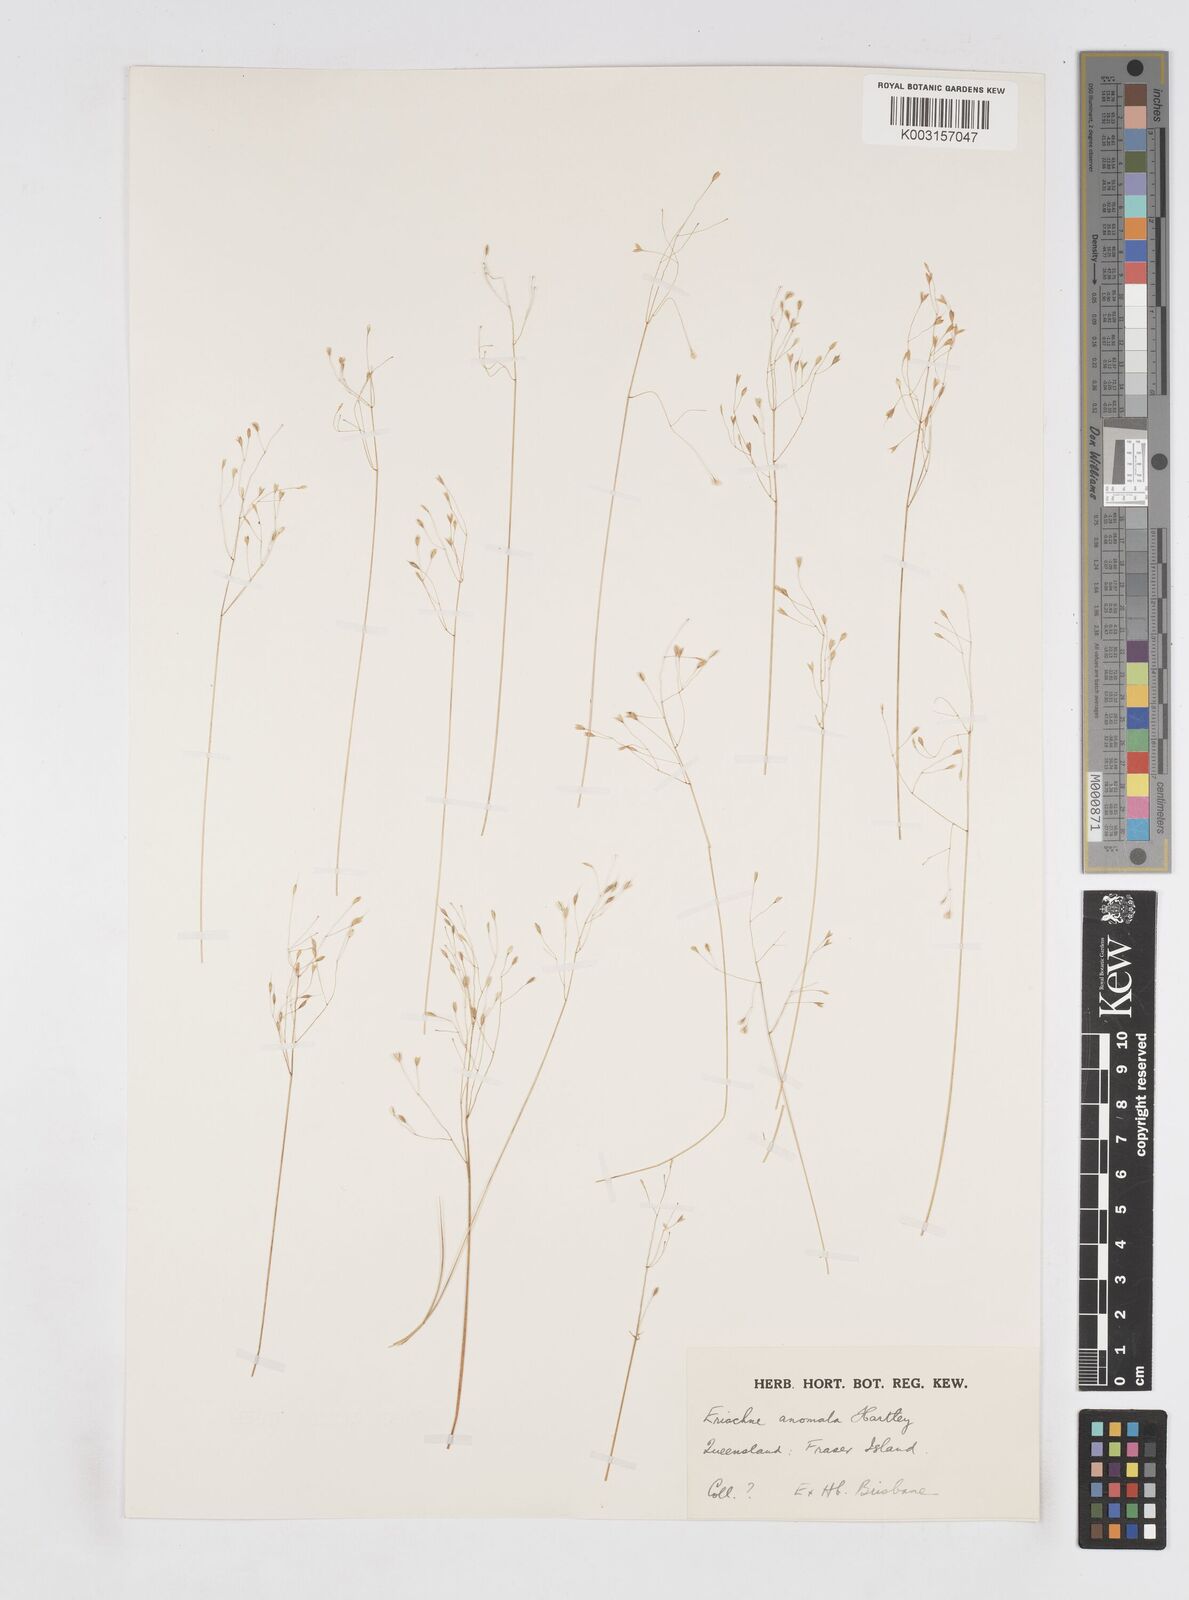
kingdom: Plantae
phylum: Tracheophyta
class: Liliopsida
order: Poales
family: Poaceae
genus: Eriachne
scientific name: Eriachne pallescens
